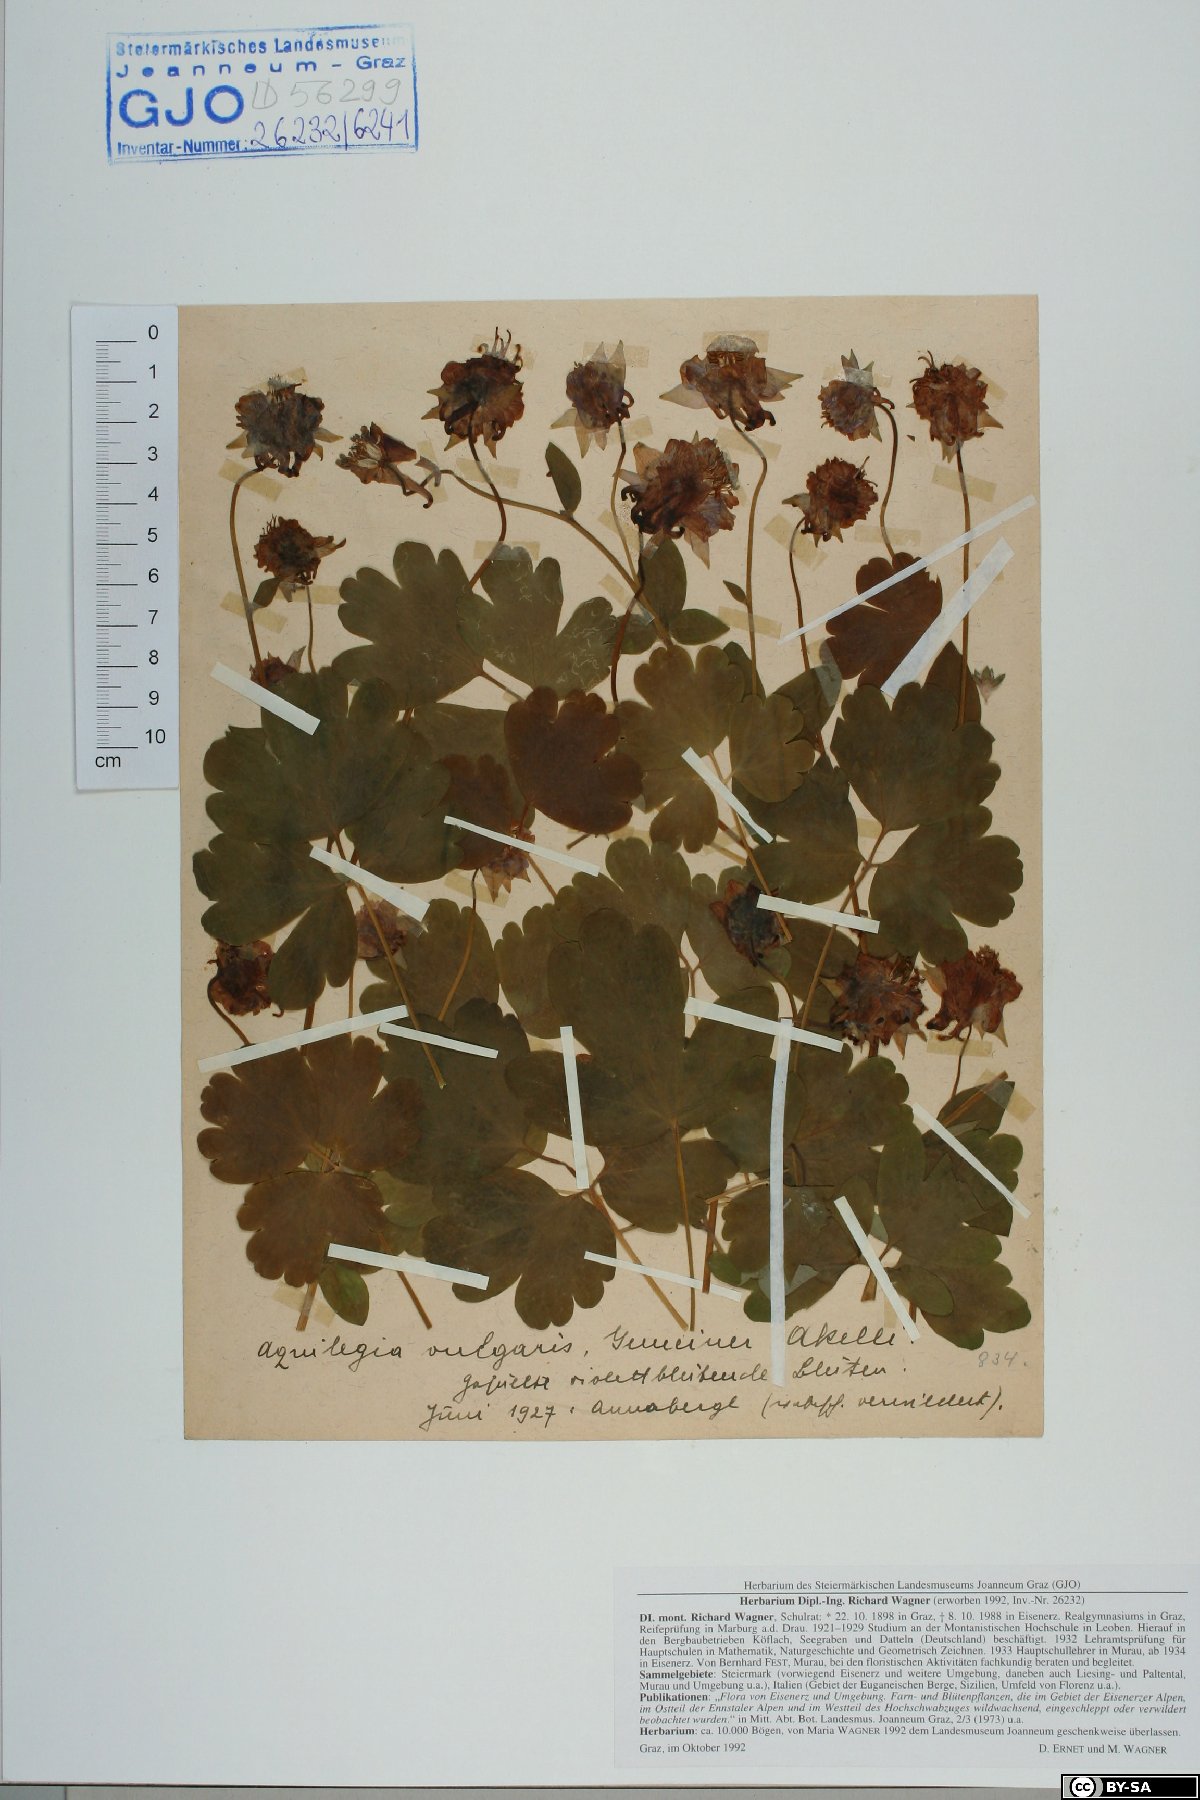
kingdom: Plantae
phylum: Tracheophyta
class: Magnoliopsida
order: Ranunculales
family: Ranunculaceae
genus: Aquilegia
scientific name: Aquilegia vulgaris
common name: Columbine
